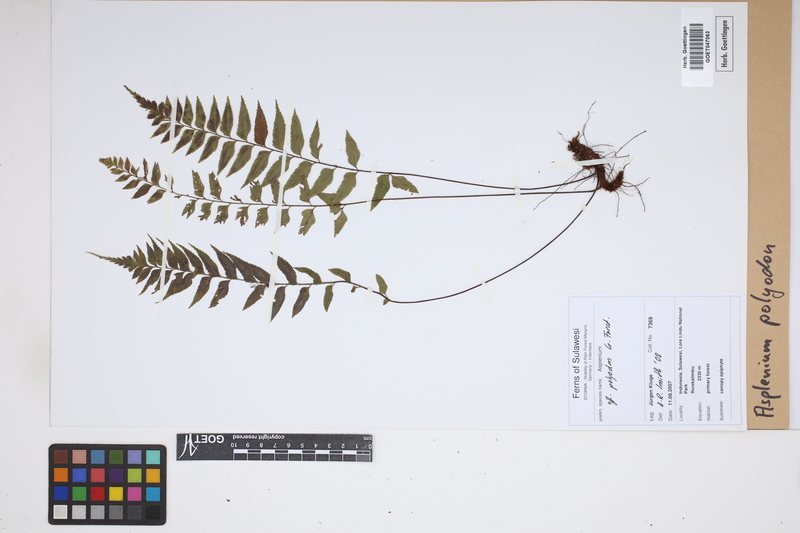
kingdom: Plantae
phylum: Tracheophyta
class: Polypodiopsida
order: Polypodiales
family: Aspleniaceae
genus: Asplenium
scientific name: Asplenium polyodon
